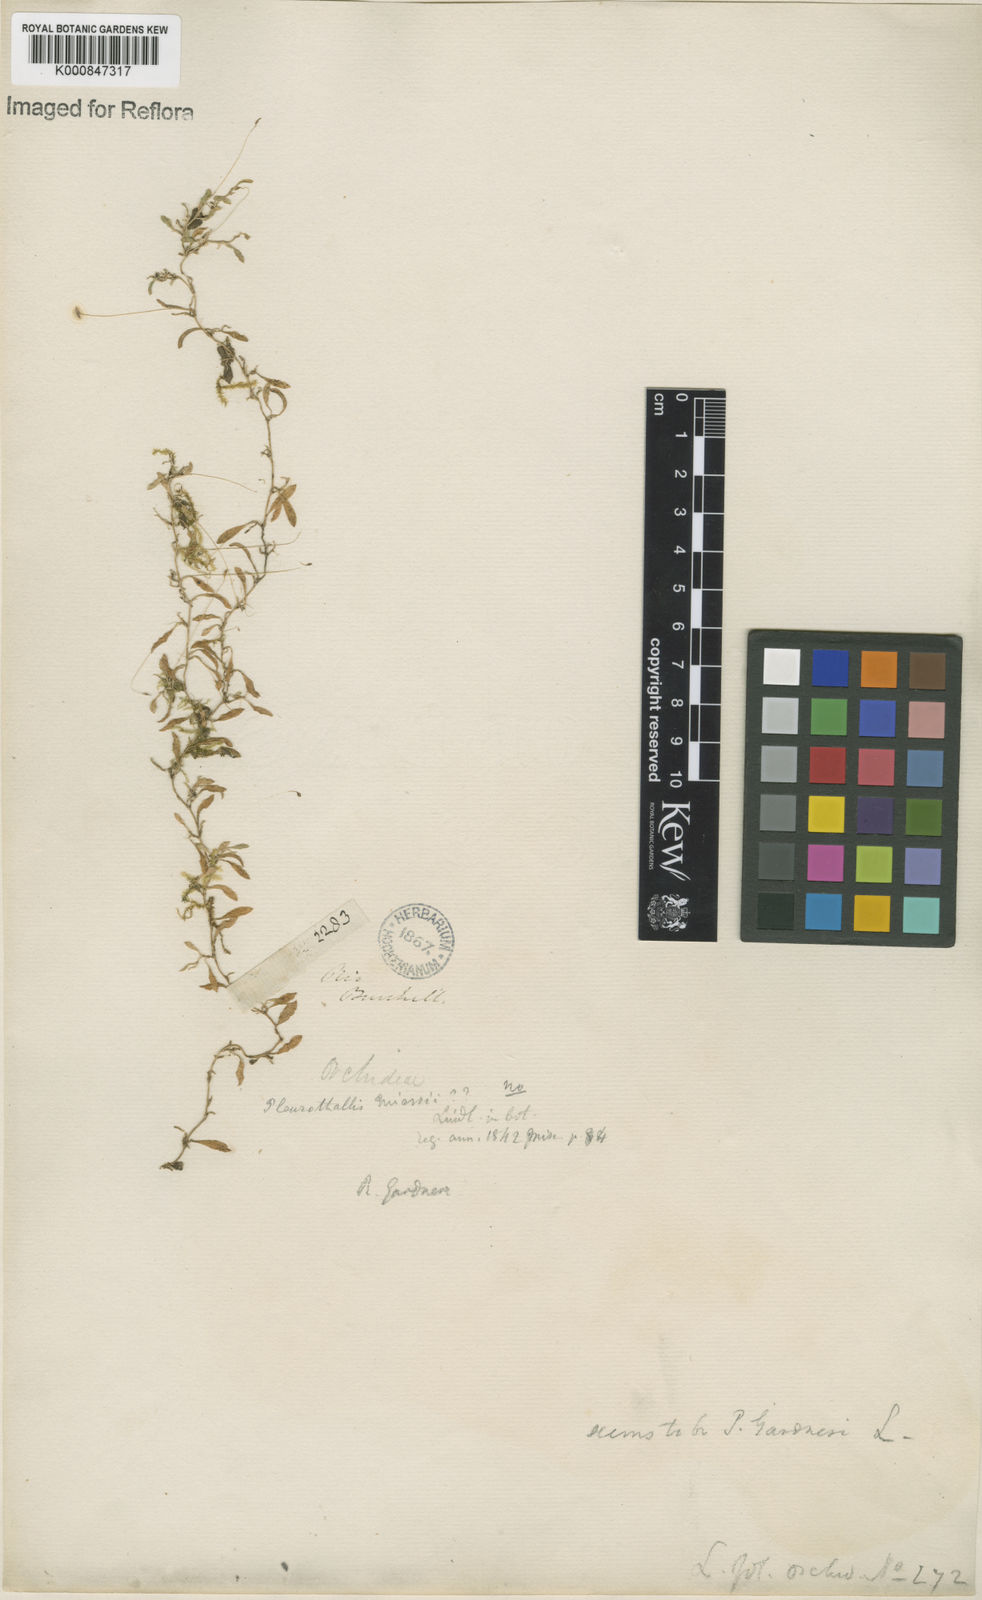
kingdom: Plantae
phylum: Tracheophyta
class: Liliopsida
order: Asparagales
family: Orchidaceae
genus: Barbosella
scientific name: Barbosella miersii
